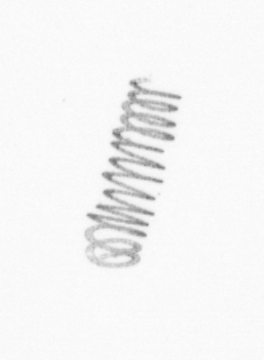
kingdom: Chromista
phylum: Ochrophyta
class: Bacillariophyceae
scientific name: Bacillariophyceae
